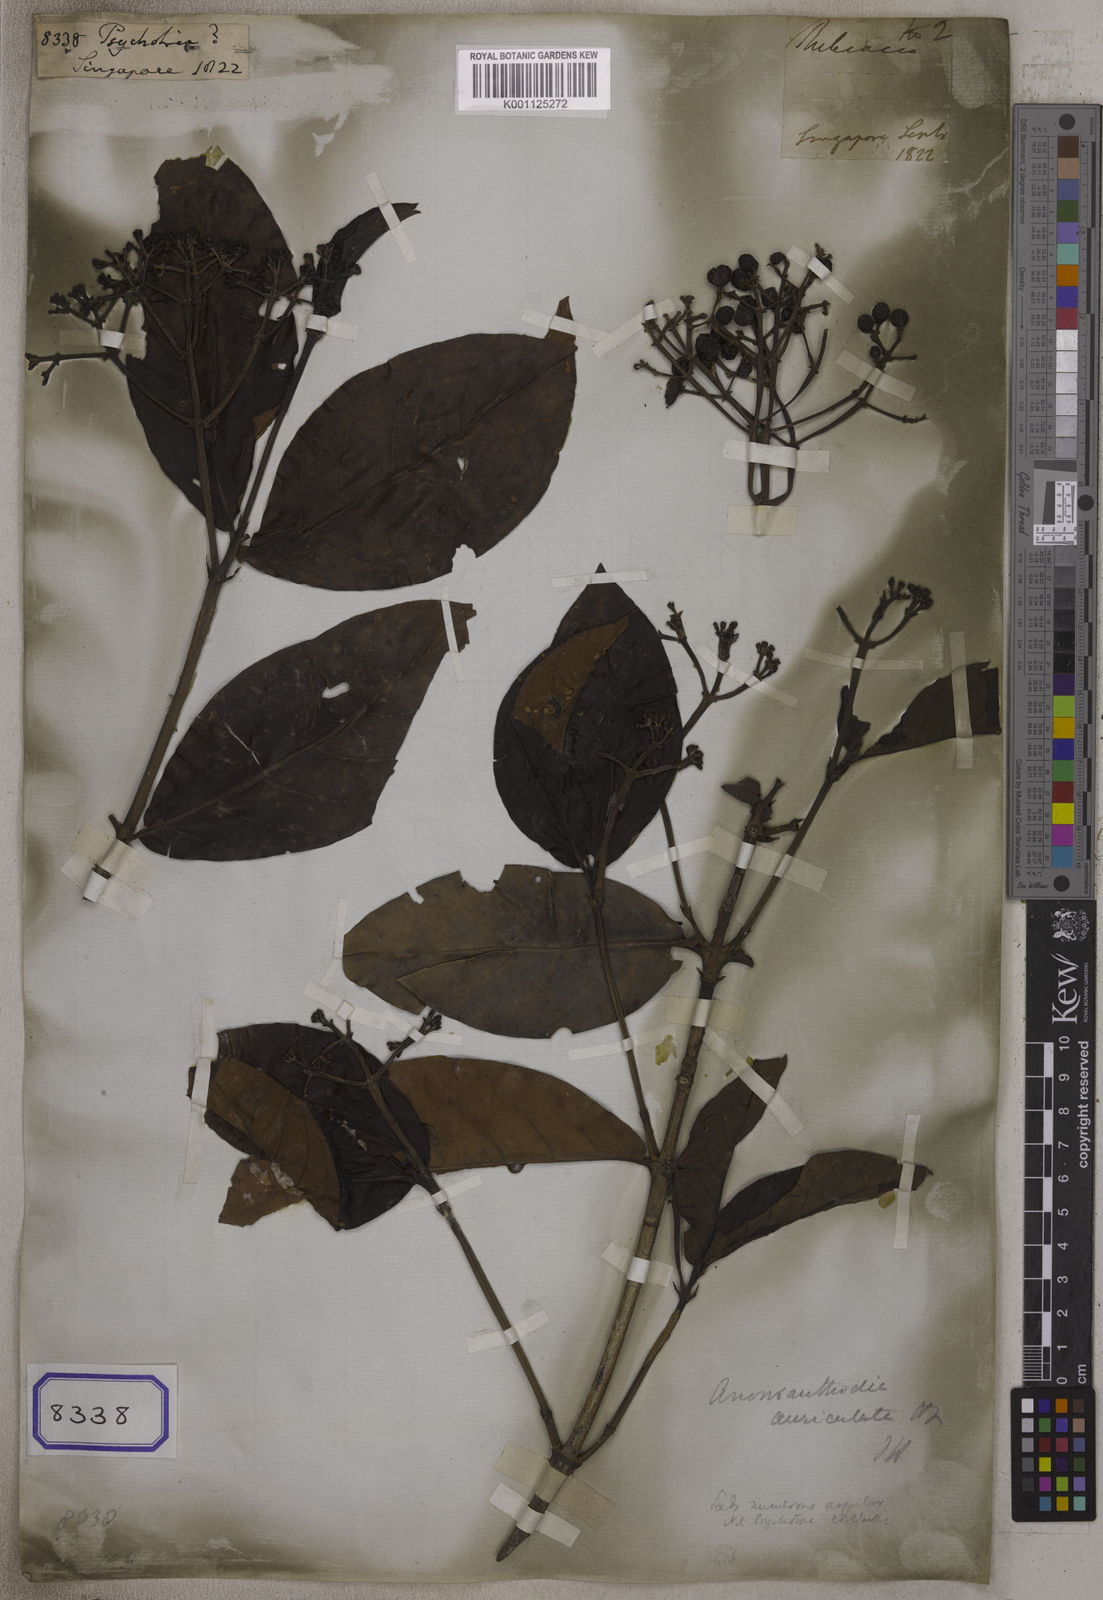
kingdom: Plantae
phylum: Tracheophyta
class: Magnoliopsida
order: Gentianales
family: Rubiaceae
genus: Psychotria
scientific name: Psychotria
